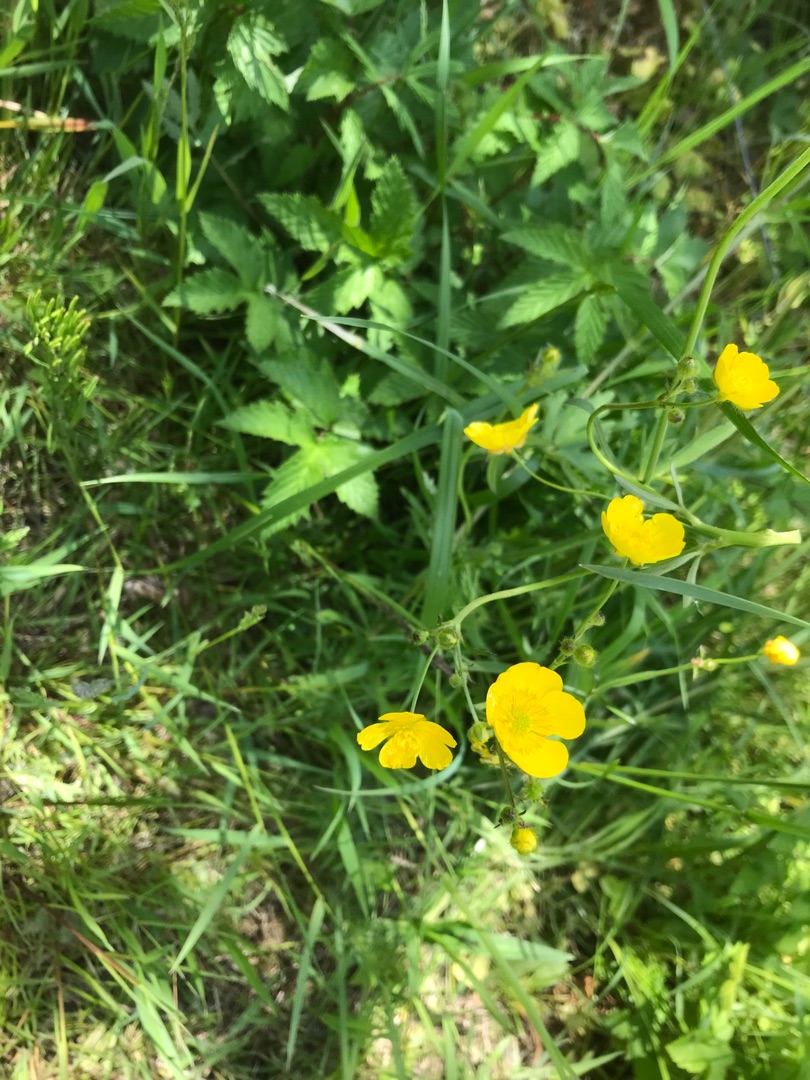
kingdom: Plantae
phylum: Tracheophyta
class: Magnoliopsida
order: Ranunculales
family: Ranunculaceae
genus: Ranunculus
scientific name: Ranunculus acris
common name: Bidende ranunkel
